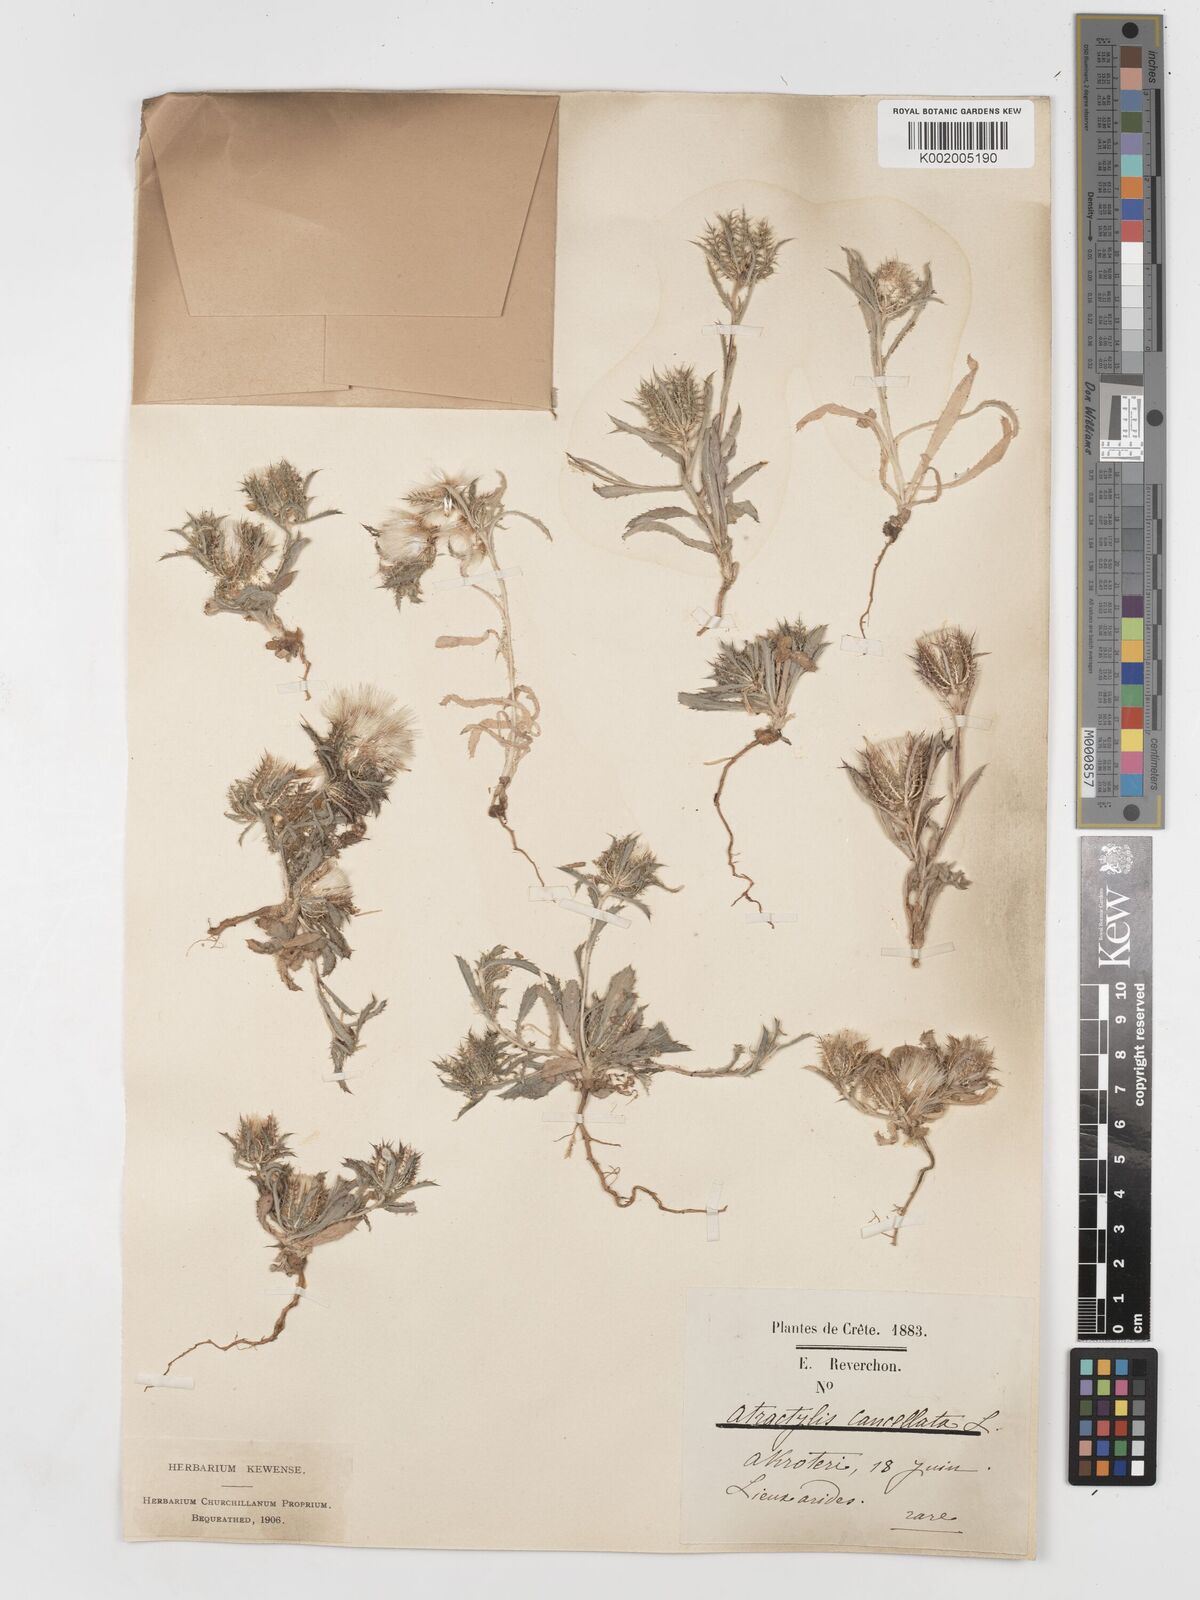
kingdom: Plantae
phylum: Tracheophyta
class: Magnoliopsida
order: Asterales
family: Asteraceae
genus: Atractylis
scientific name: Atractylis cancellata
